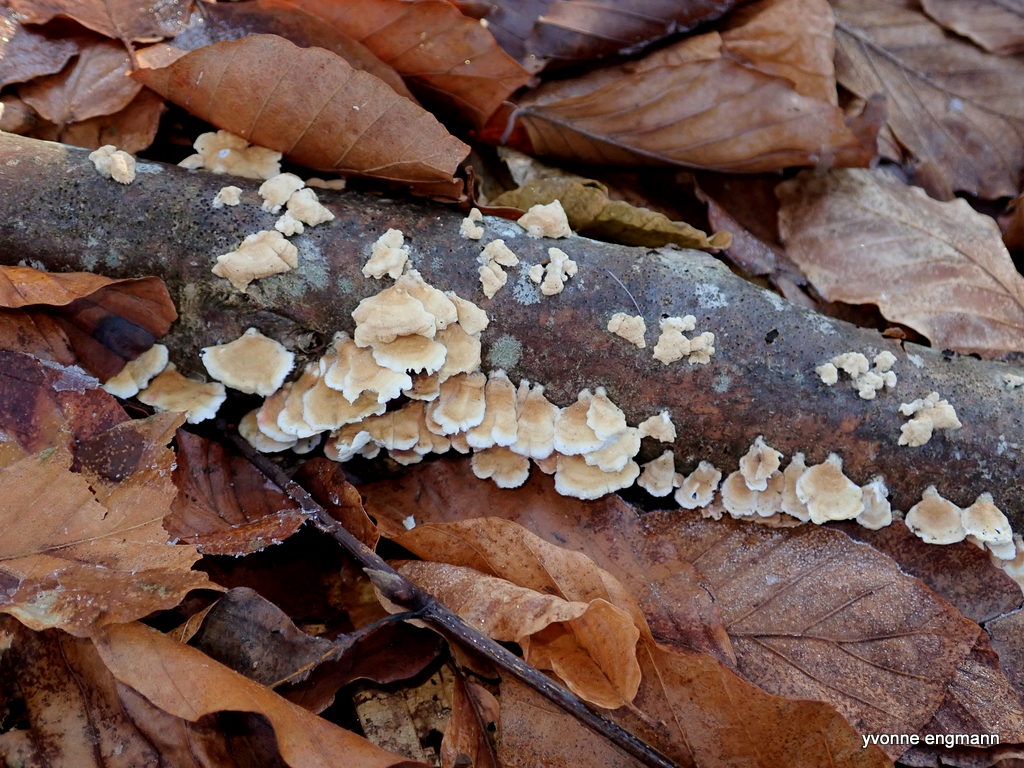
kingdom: Fungi
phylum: Basidiomycota
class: Agaricomycetes
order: Amylocorticiales
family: Amylocorticiaceae
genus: Plicaturopsis
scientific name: Plicaturopsis crispa
